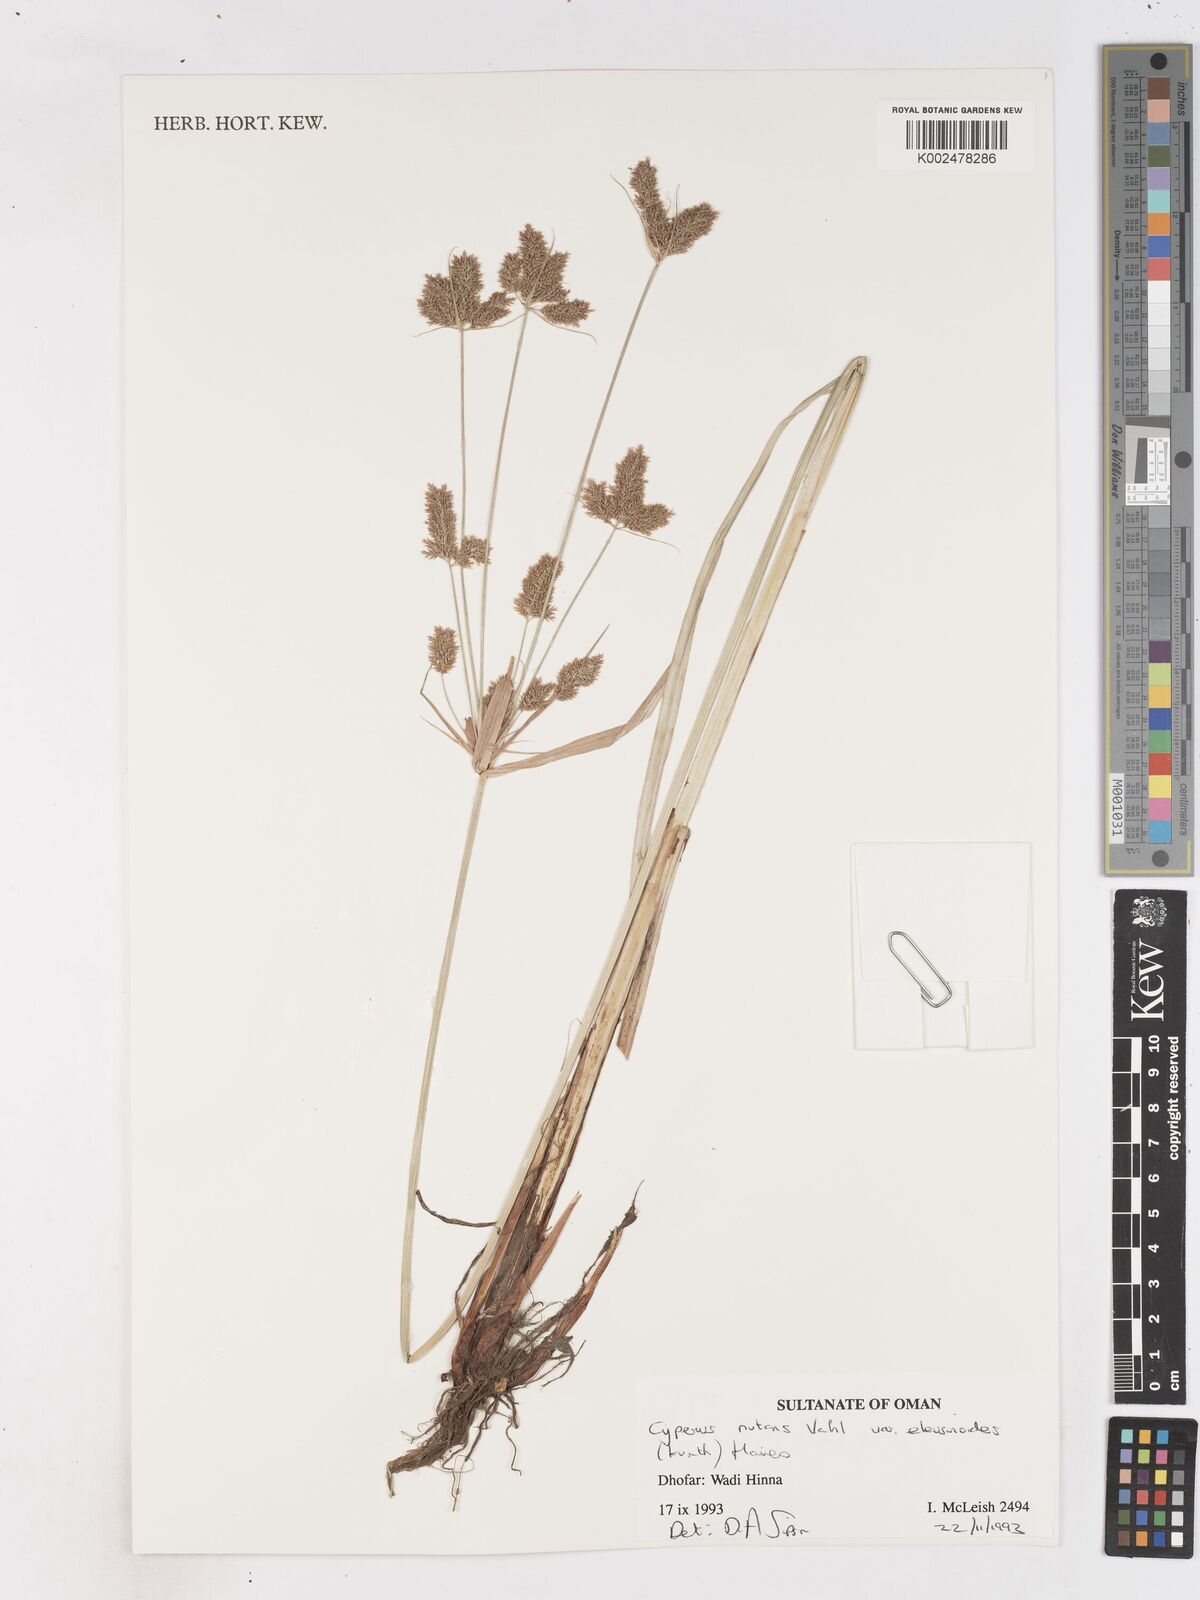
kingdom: Plantae
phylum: Tracheophyta
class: Liliopsida
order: Poales
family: Cyperaceae
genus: Cyperus
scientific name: Cyperus nutans
